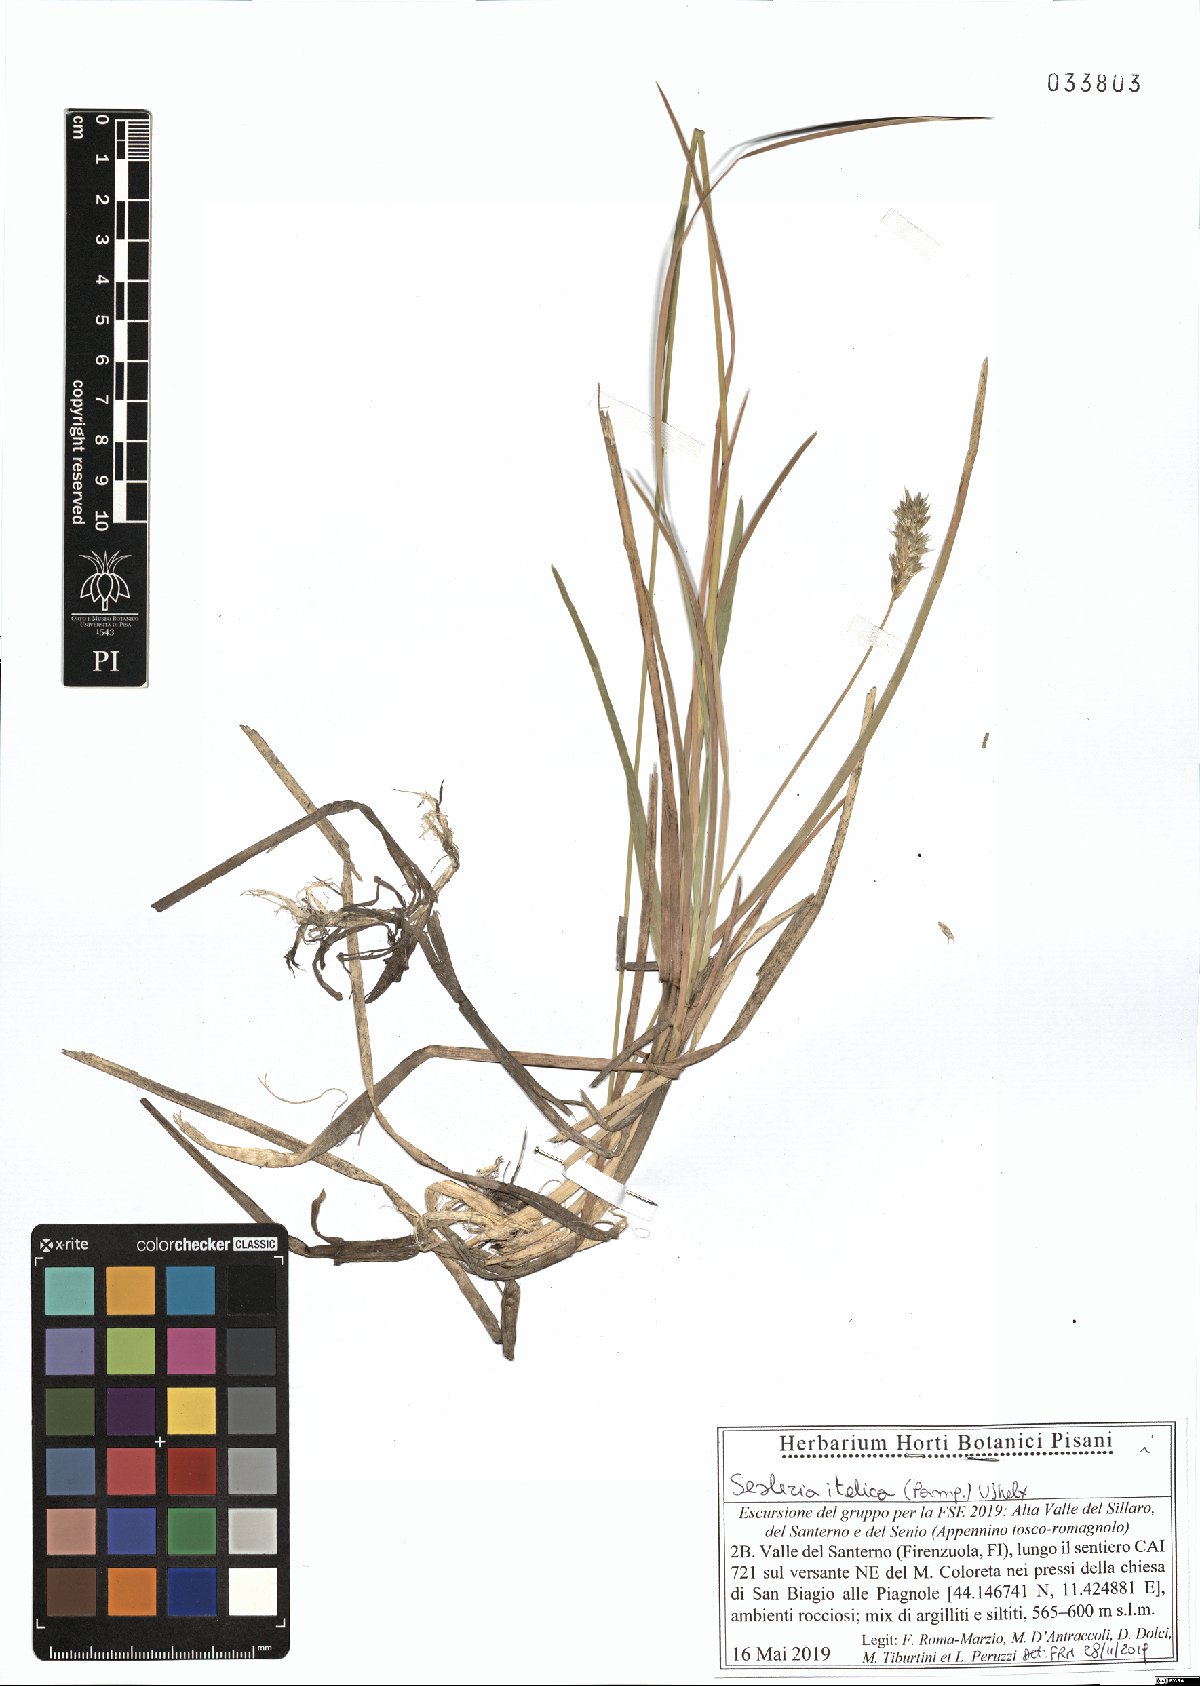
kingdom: Plantae
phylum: Tracheophyta
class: Liliopsida
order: Poales
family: Poaceae
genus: Sesleria
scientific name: Sesleria italica
